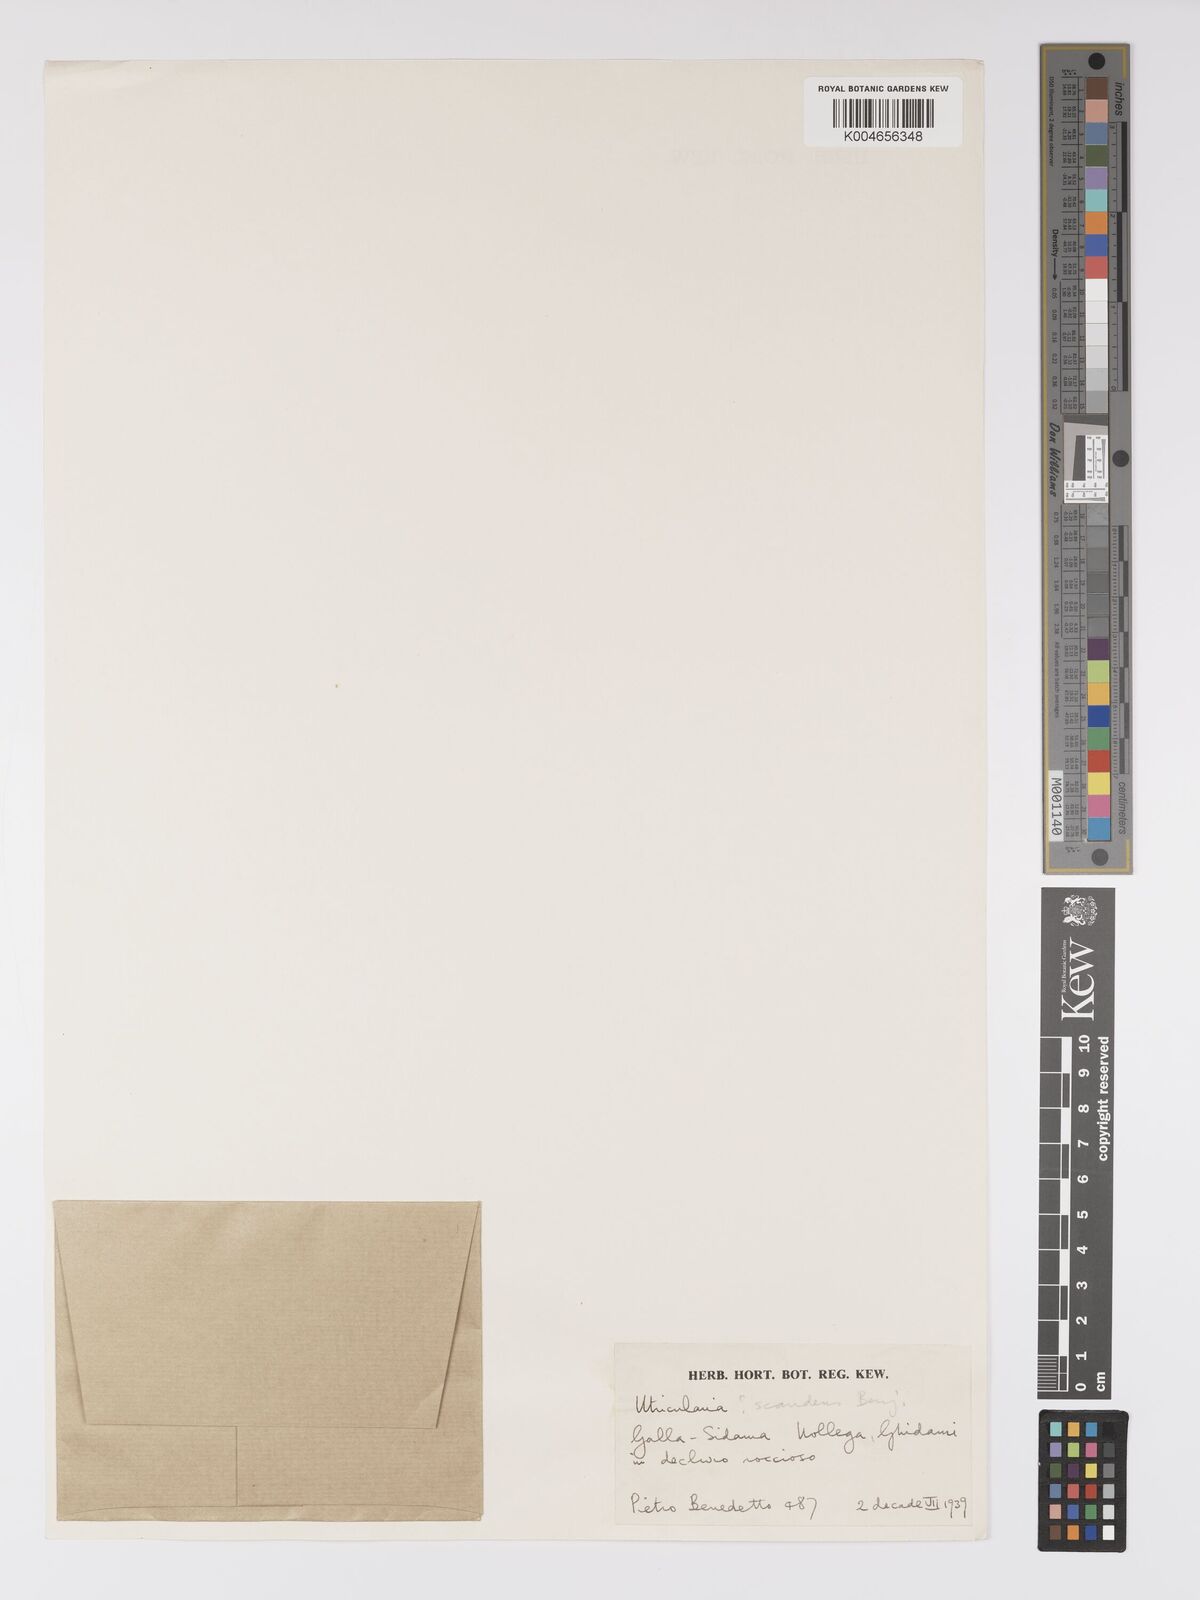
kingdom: Plantae
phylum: Tracheophyta
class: Magnoliopsida
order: Lamiales
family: Lentibulariaceae
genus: Utricularia
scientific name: Utricularia
